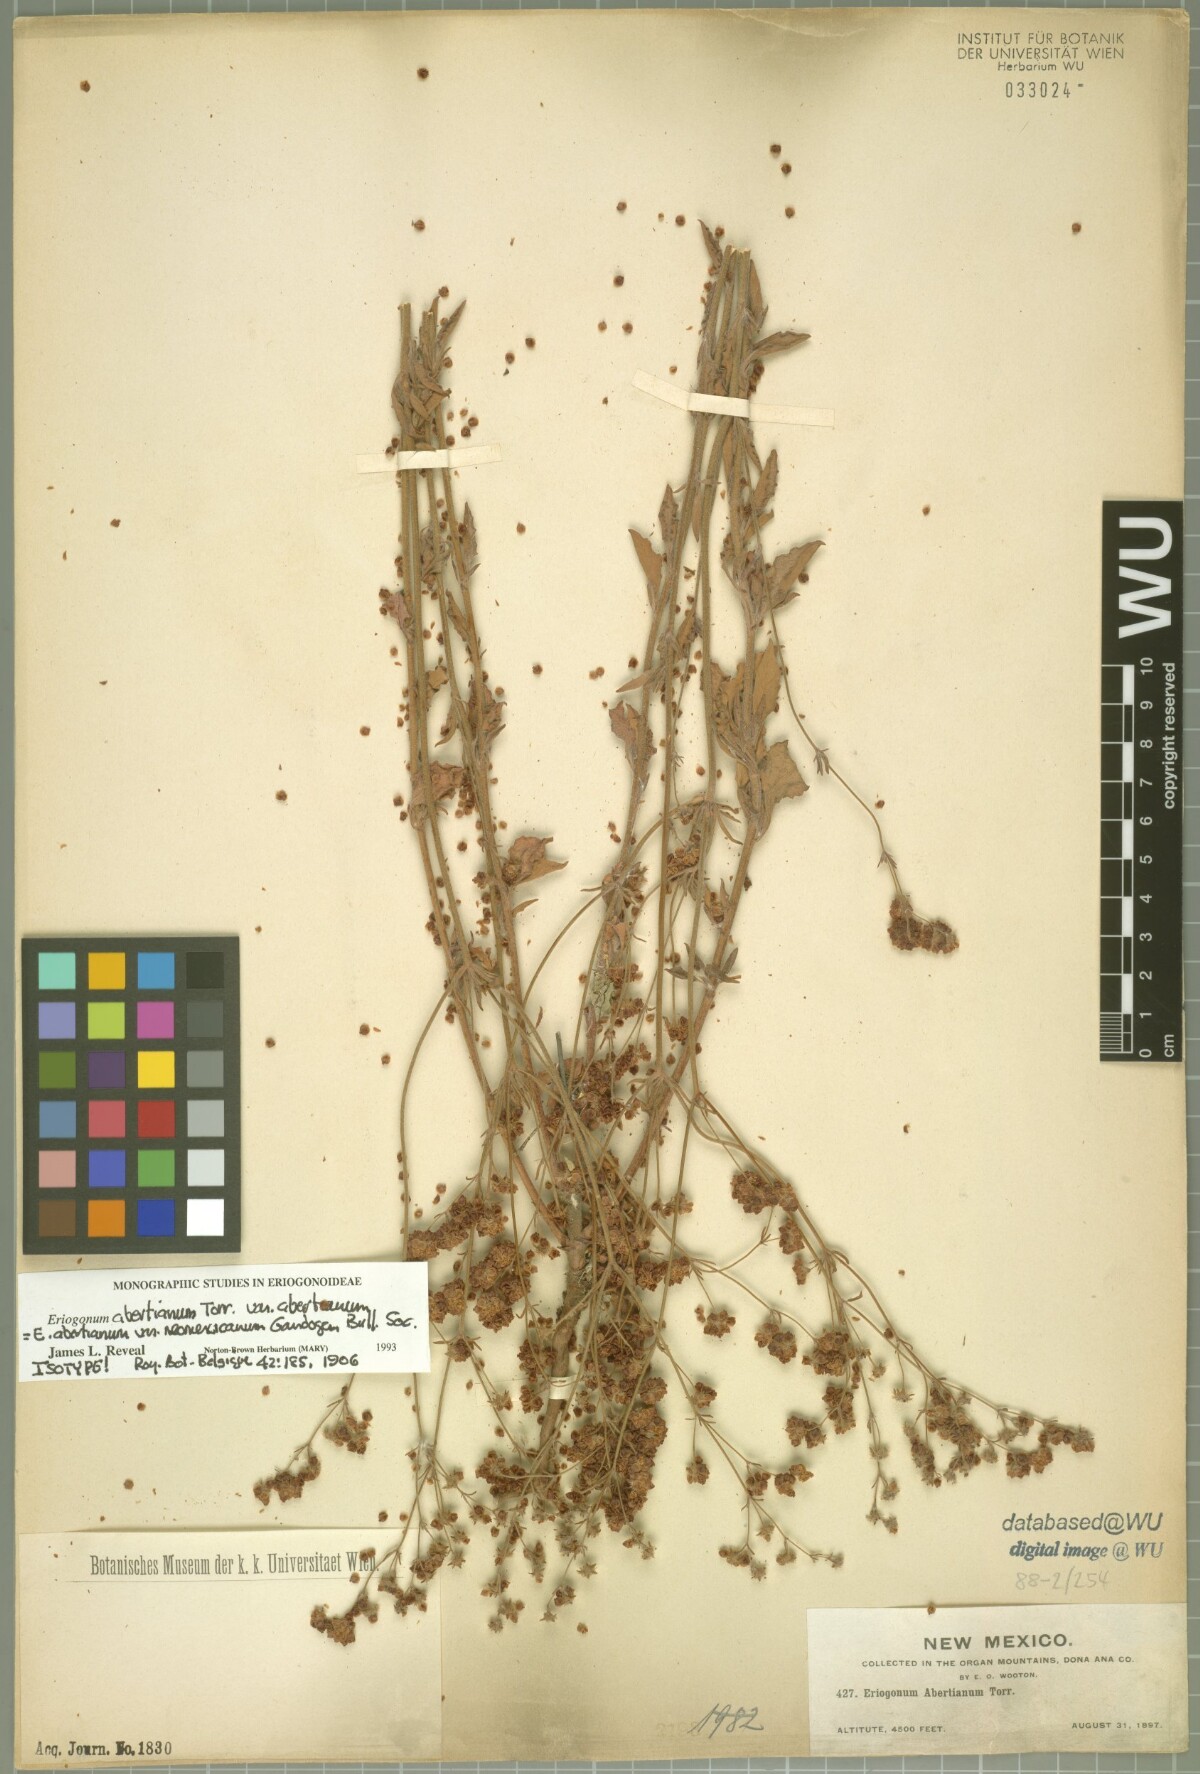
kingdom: Plantae
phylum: Tracheophyta
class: Magnoliopsida
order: Caryophyllales
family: Polygonaceae
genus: Eriogonum
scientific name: Eriogonum abertianum
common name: Abert's wild buckwheat
